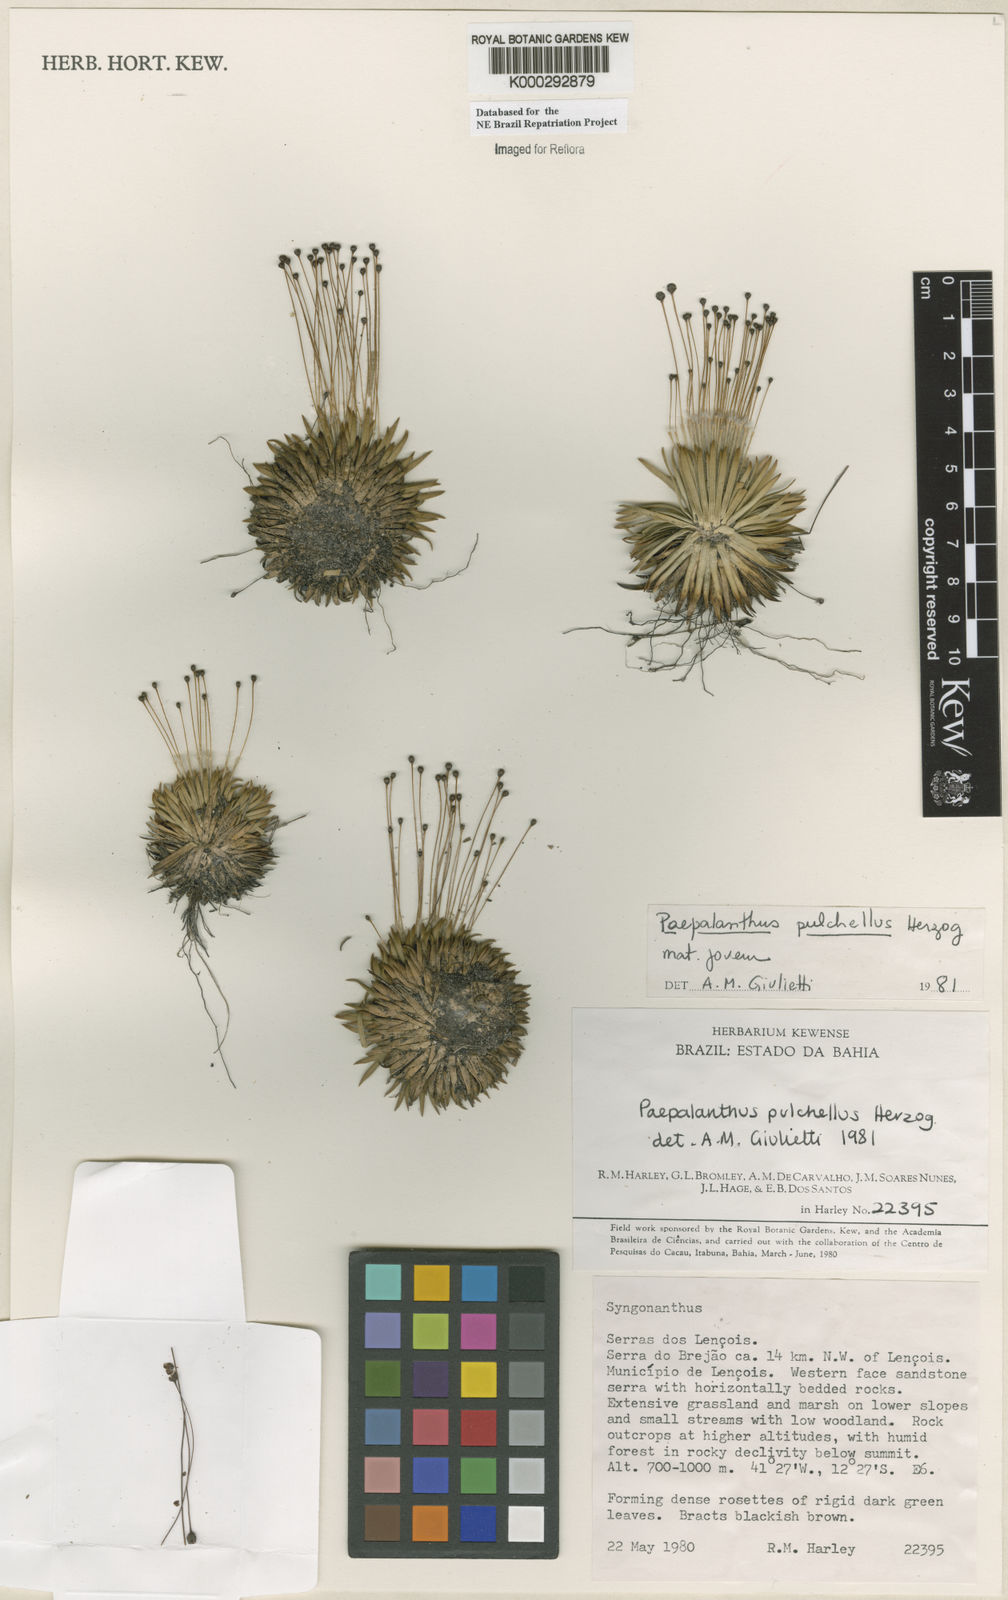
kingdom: Plantae
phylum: Tracheophyta
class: Liliopsida
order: Poales
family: Eriocaulaceae
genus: Paepalanthus
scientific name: Paepalanthus pulchellus
